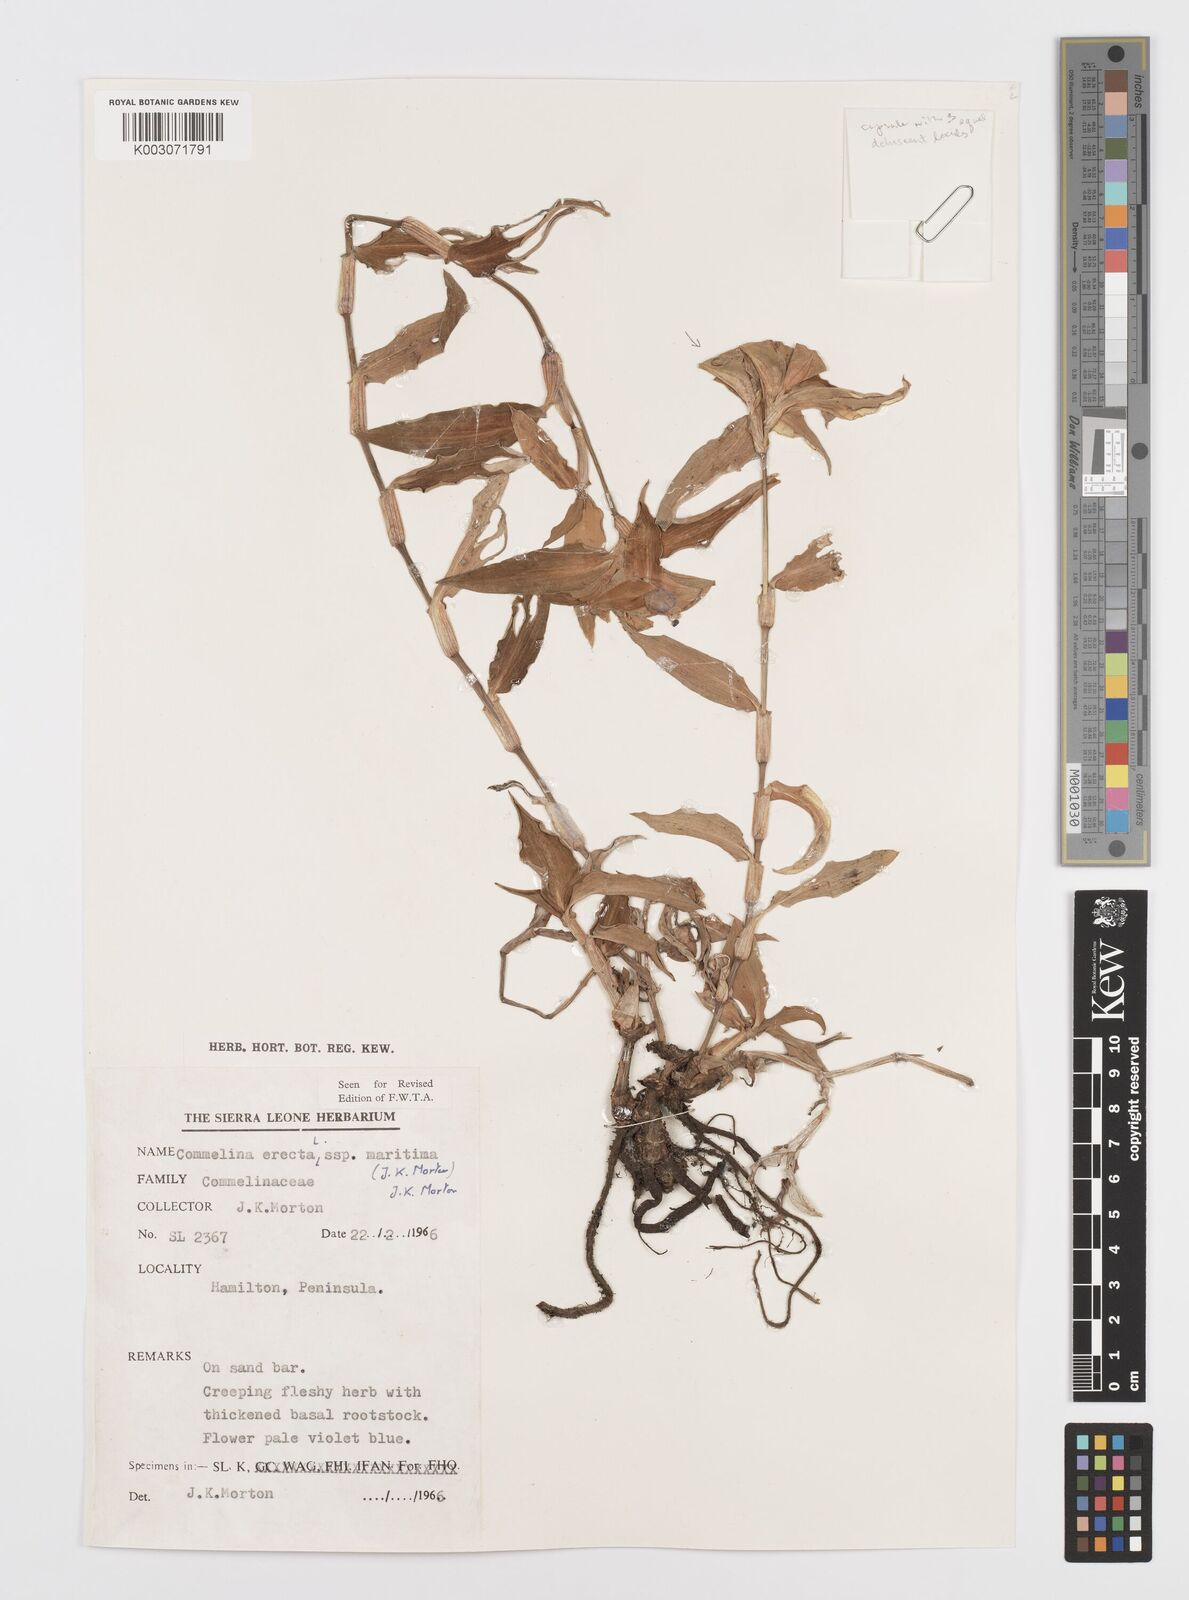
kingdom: Plantae
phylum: Tracheophyta
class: Liliopsida
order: Commelinales
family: Commelinaceae
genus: Commelina
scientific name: Commelina erecta
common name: Blousel blommetjie
